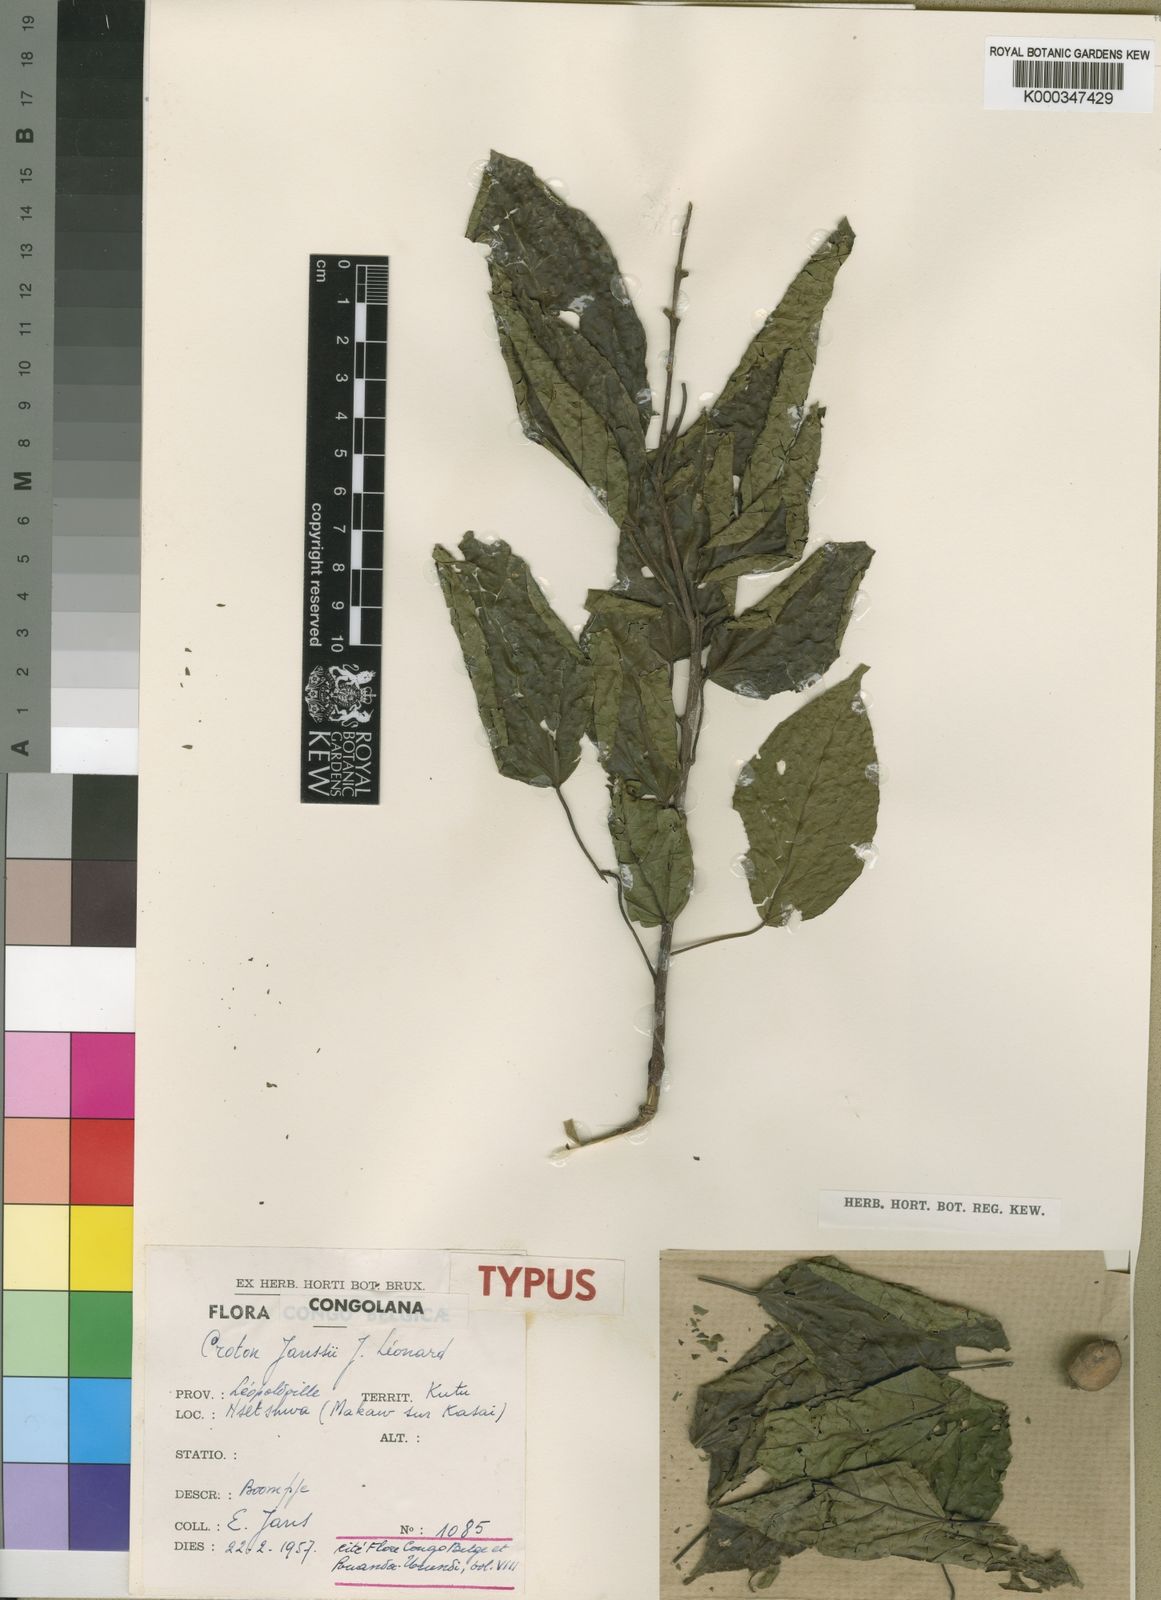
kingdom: Plantae
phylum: Tracheophyta
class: Magnoliopsida
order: Malpighiales
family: Euphorbiaceae
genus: Croton
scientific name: Croton
